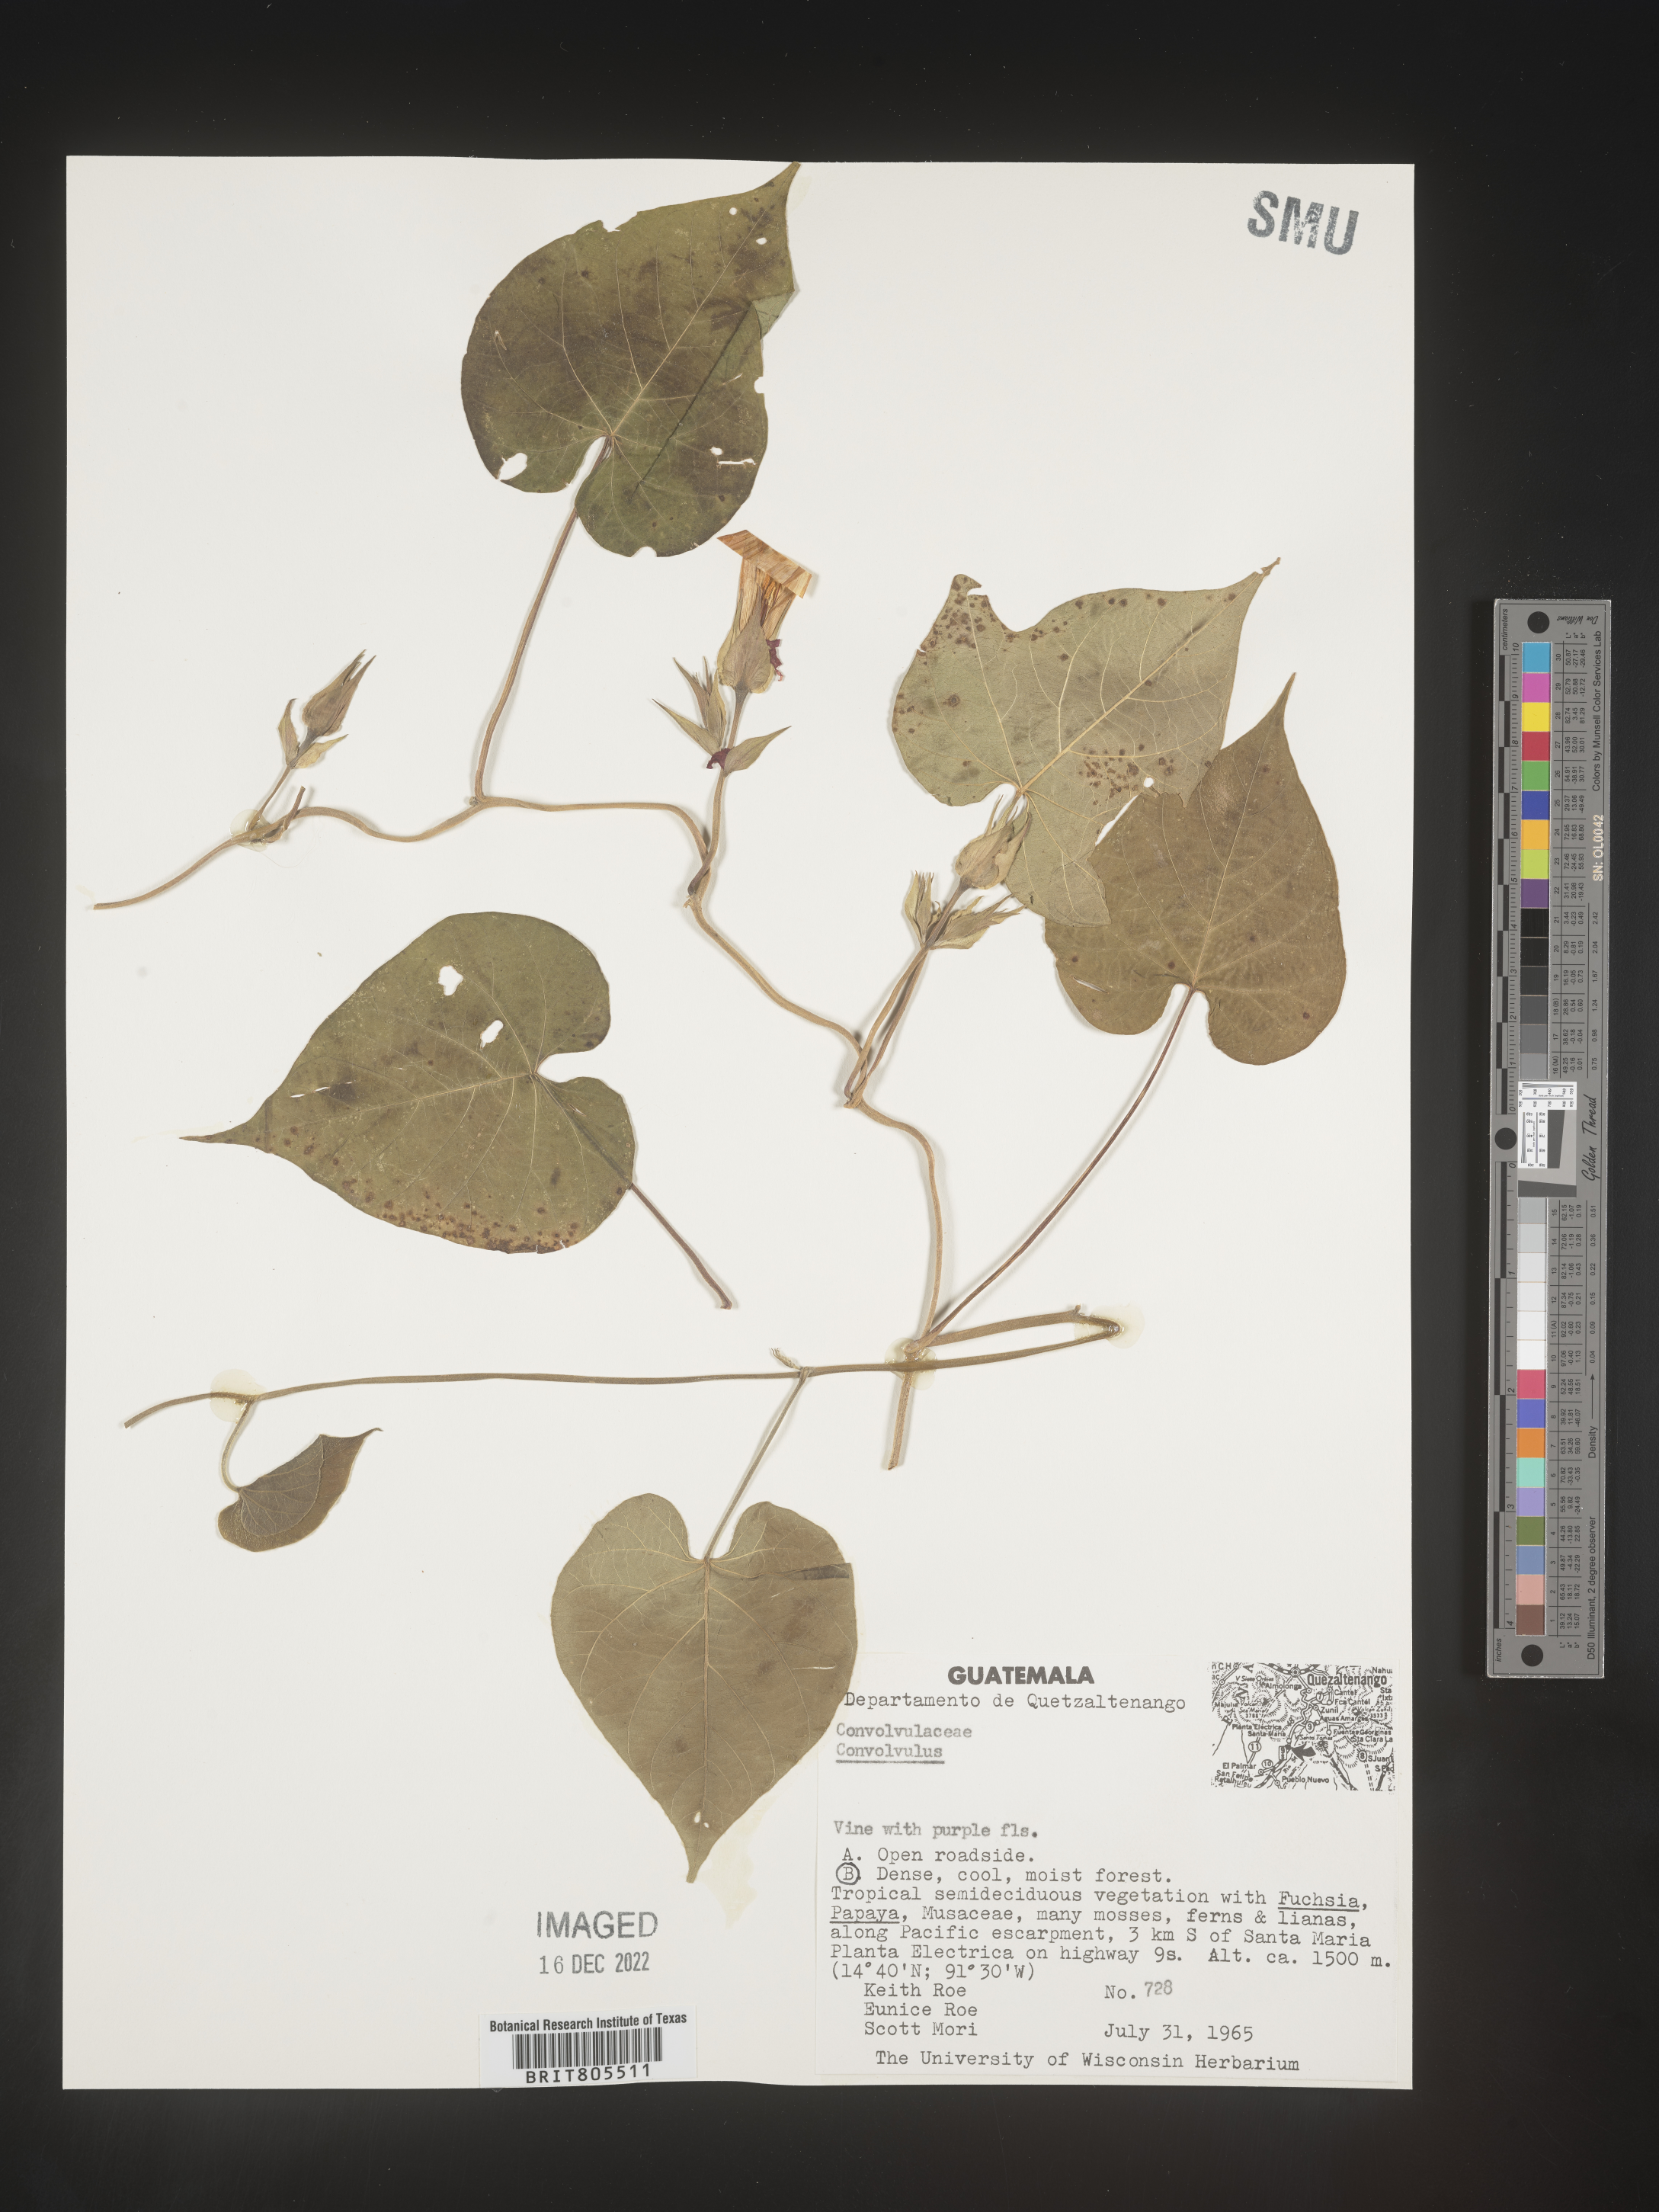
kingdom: Plantae
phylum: Tracheophyta
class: Magnoliopsida
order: Solanales
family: Convolvulaceae
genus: Ipomoea
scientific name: Ipomoea
